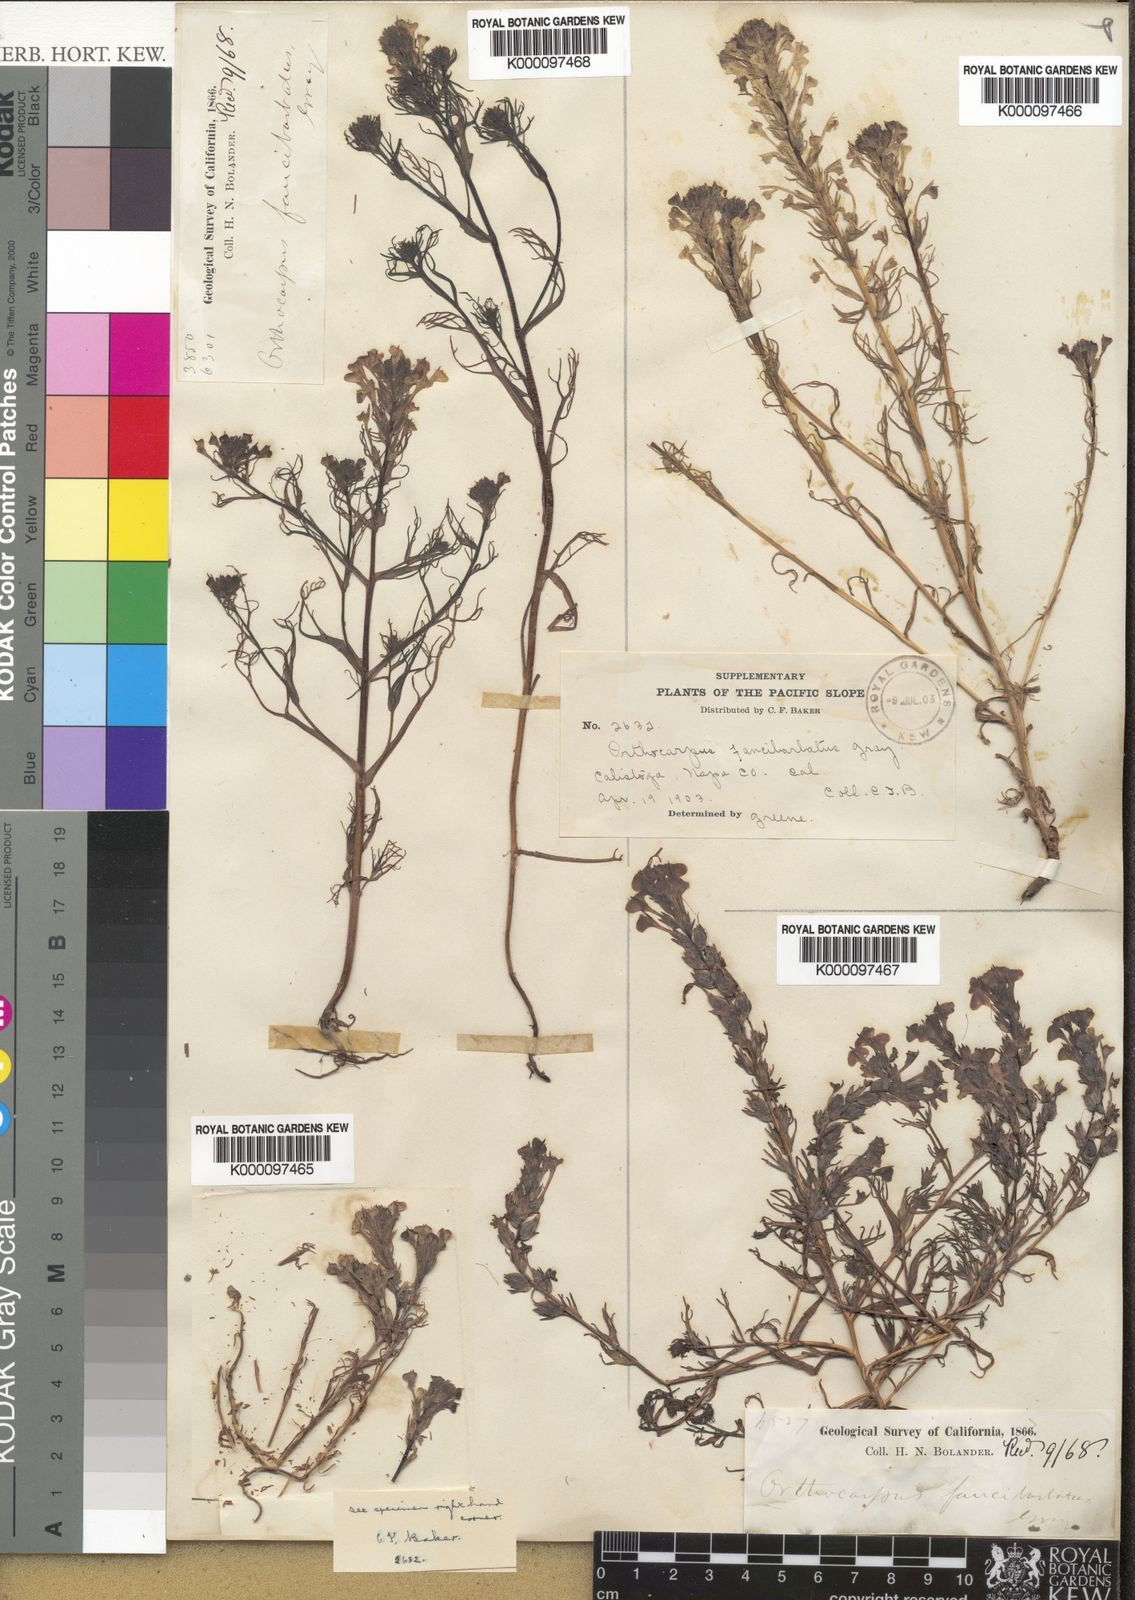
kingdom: Plantae
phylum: Tracheophyta
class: Magnoliopsida
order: Lamiales
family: Orobanchaceae
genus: Triphysaria
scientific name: Triphysaria versicolor
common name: Bearded false owl-clover
